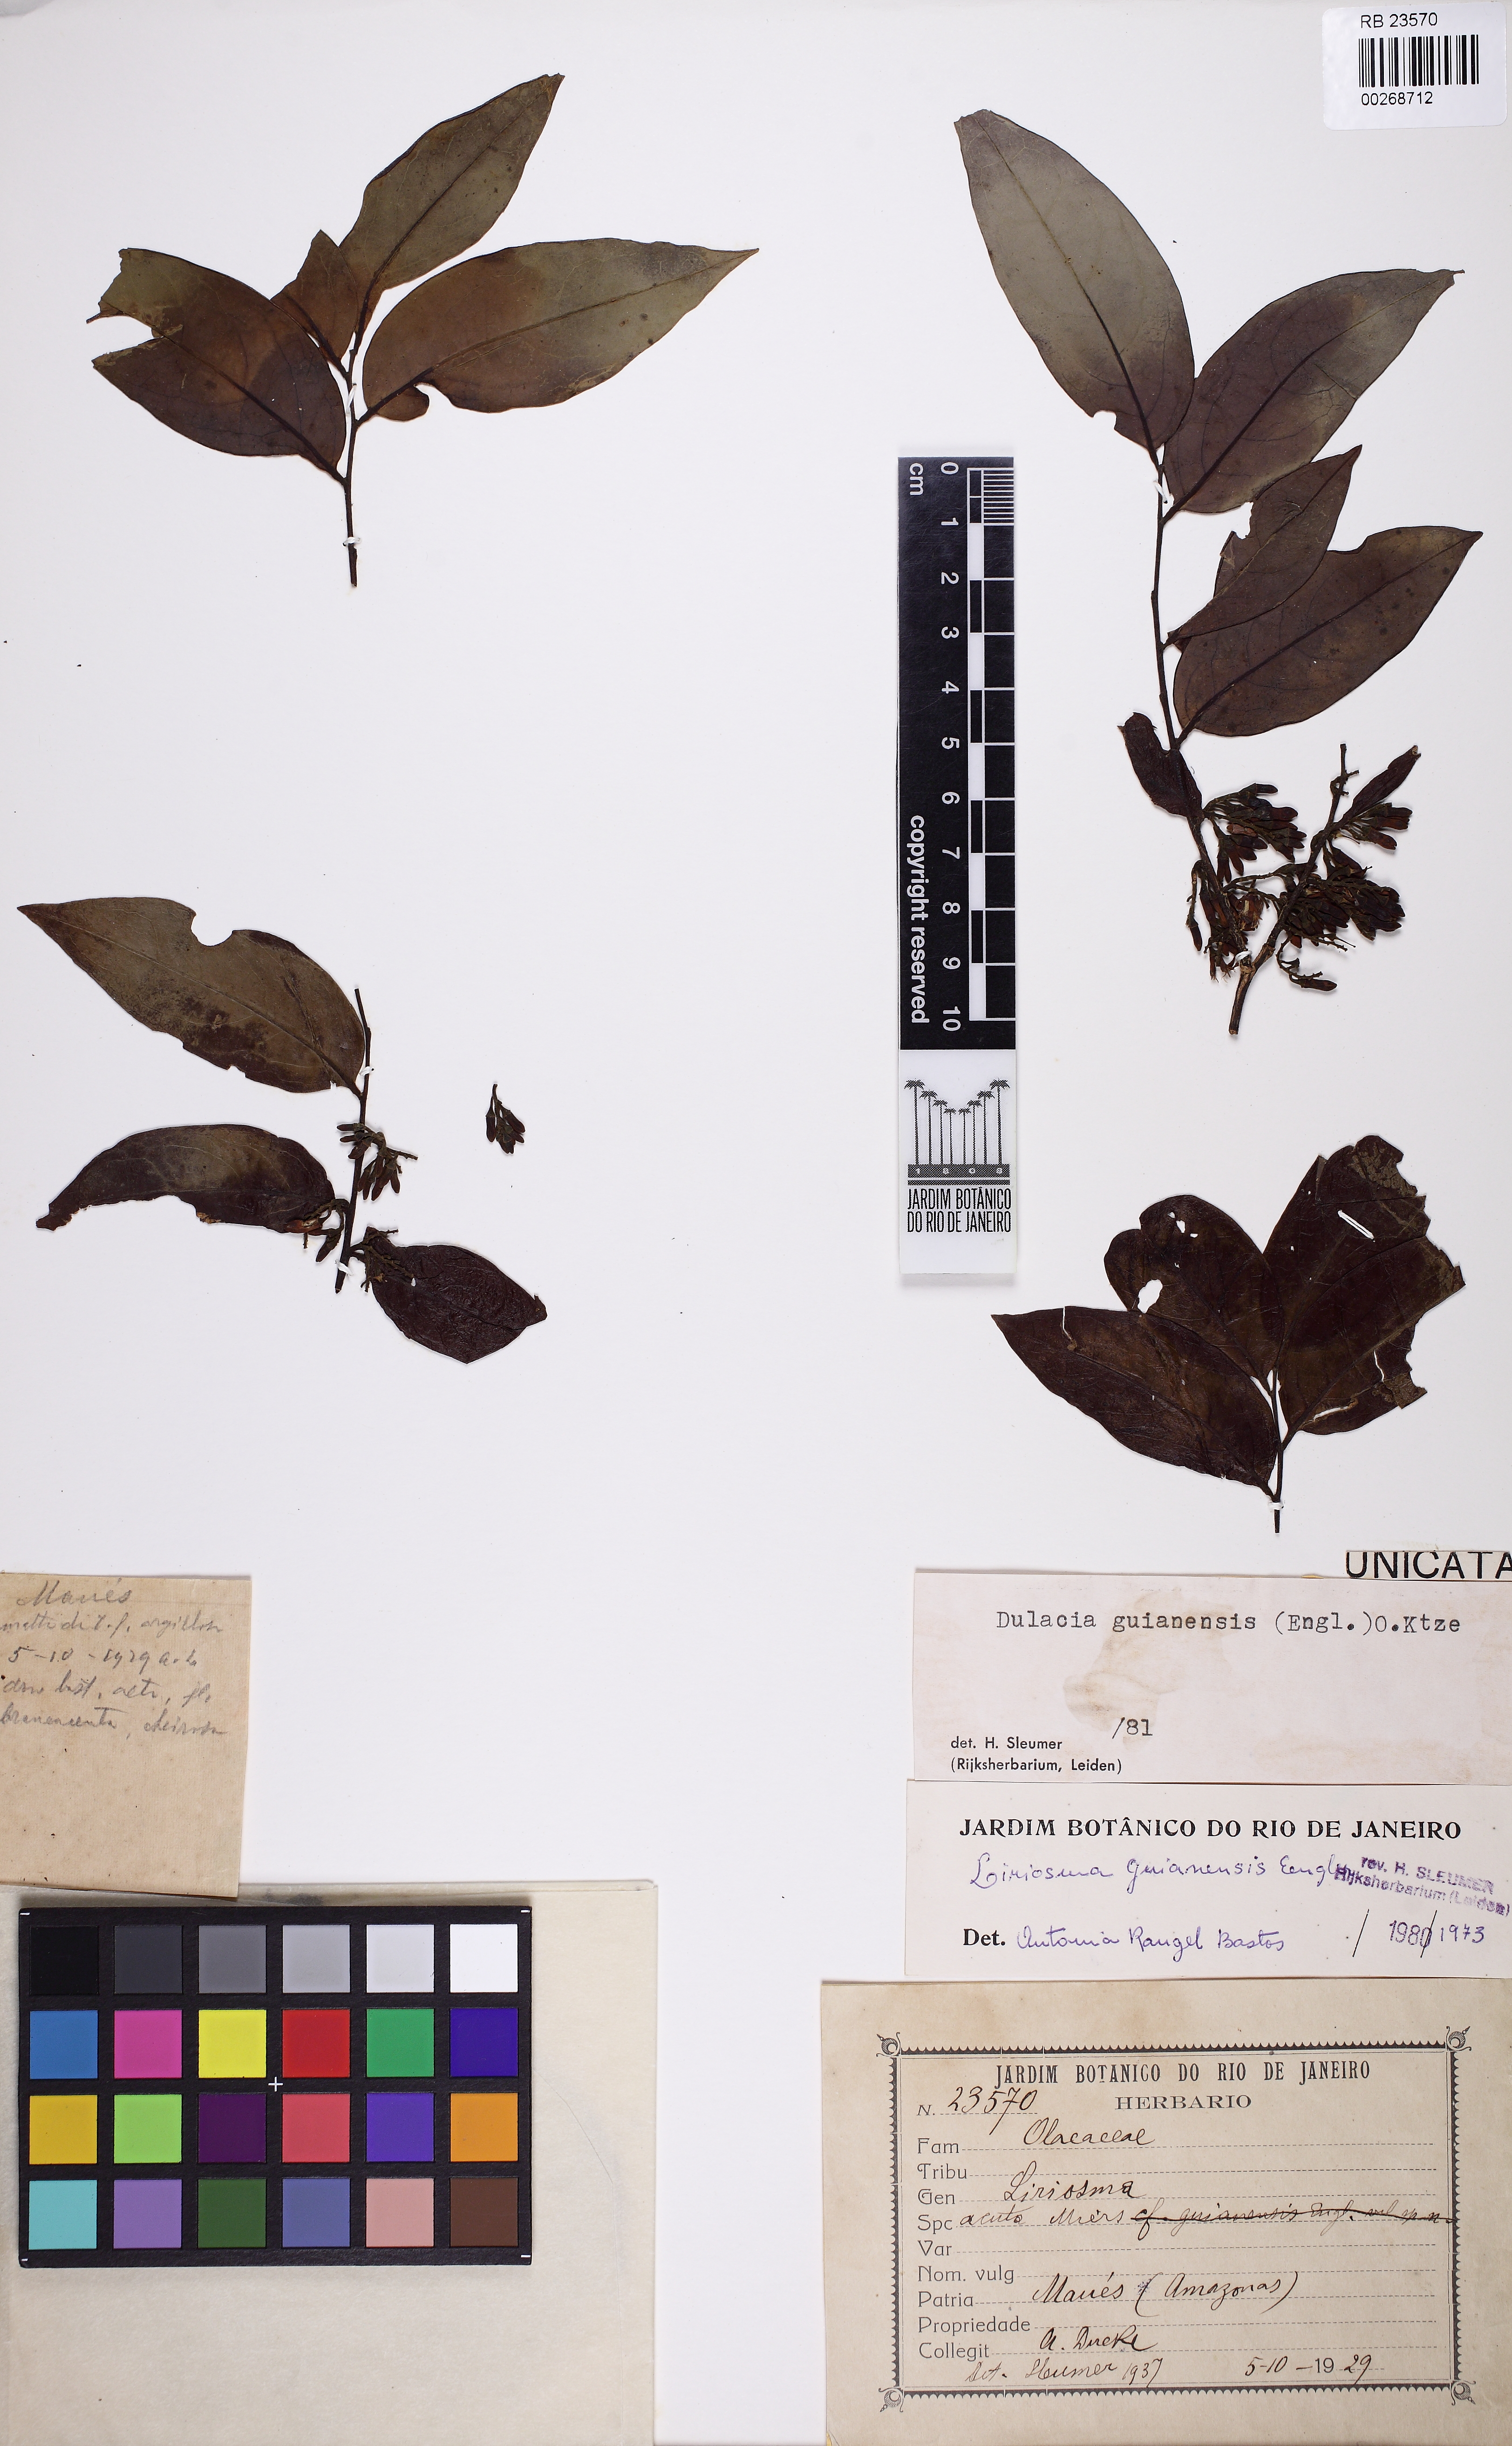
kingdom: Plantae
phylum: Tracheophyta
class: Magnoliopsida
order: Santalales
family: Olacaceae
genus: Dulacia
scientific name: Dulacia guianensis
